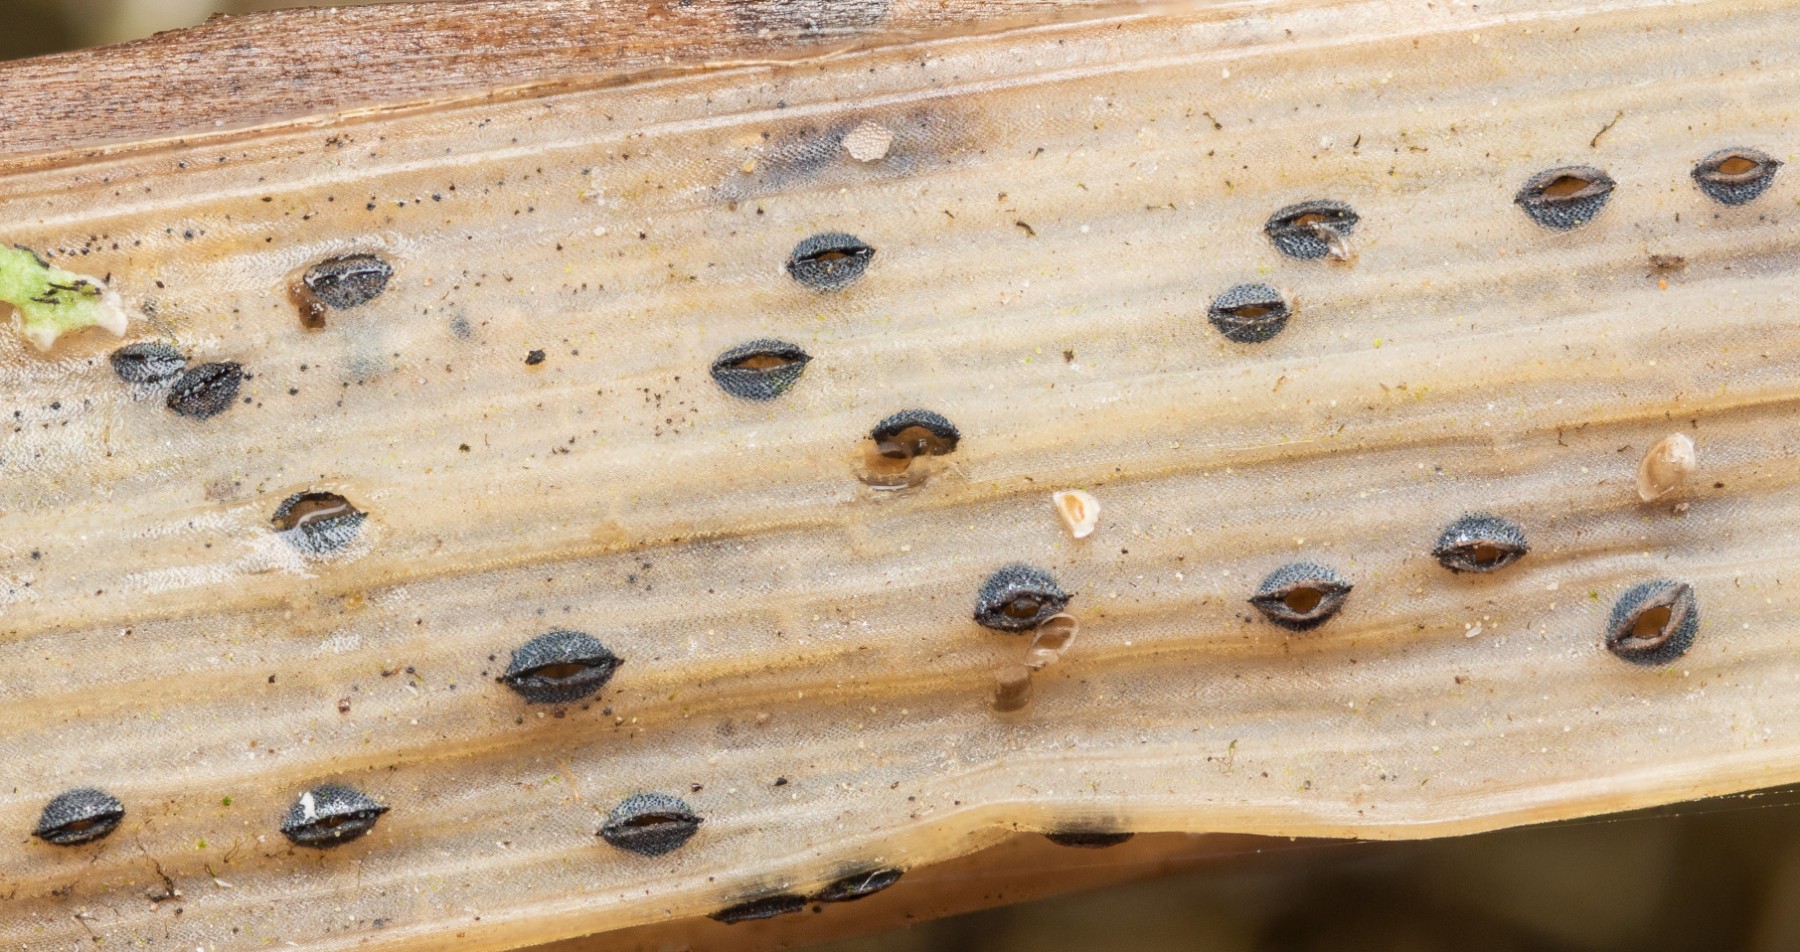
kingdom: Fungi
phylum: Ascomycota
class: Leotiomycetes
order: Rhytismatales
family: Rhytismataceae
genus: Lophodermium
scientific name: Lophodermium
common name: fureplet
